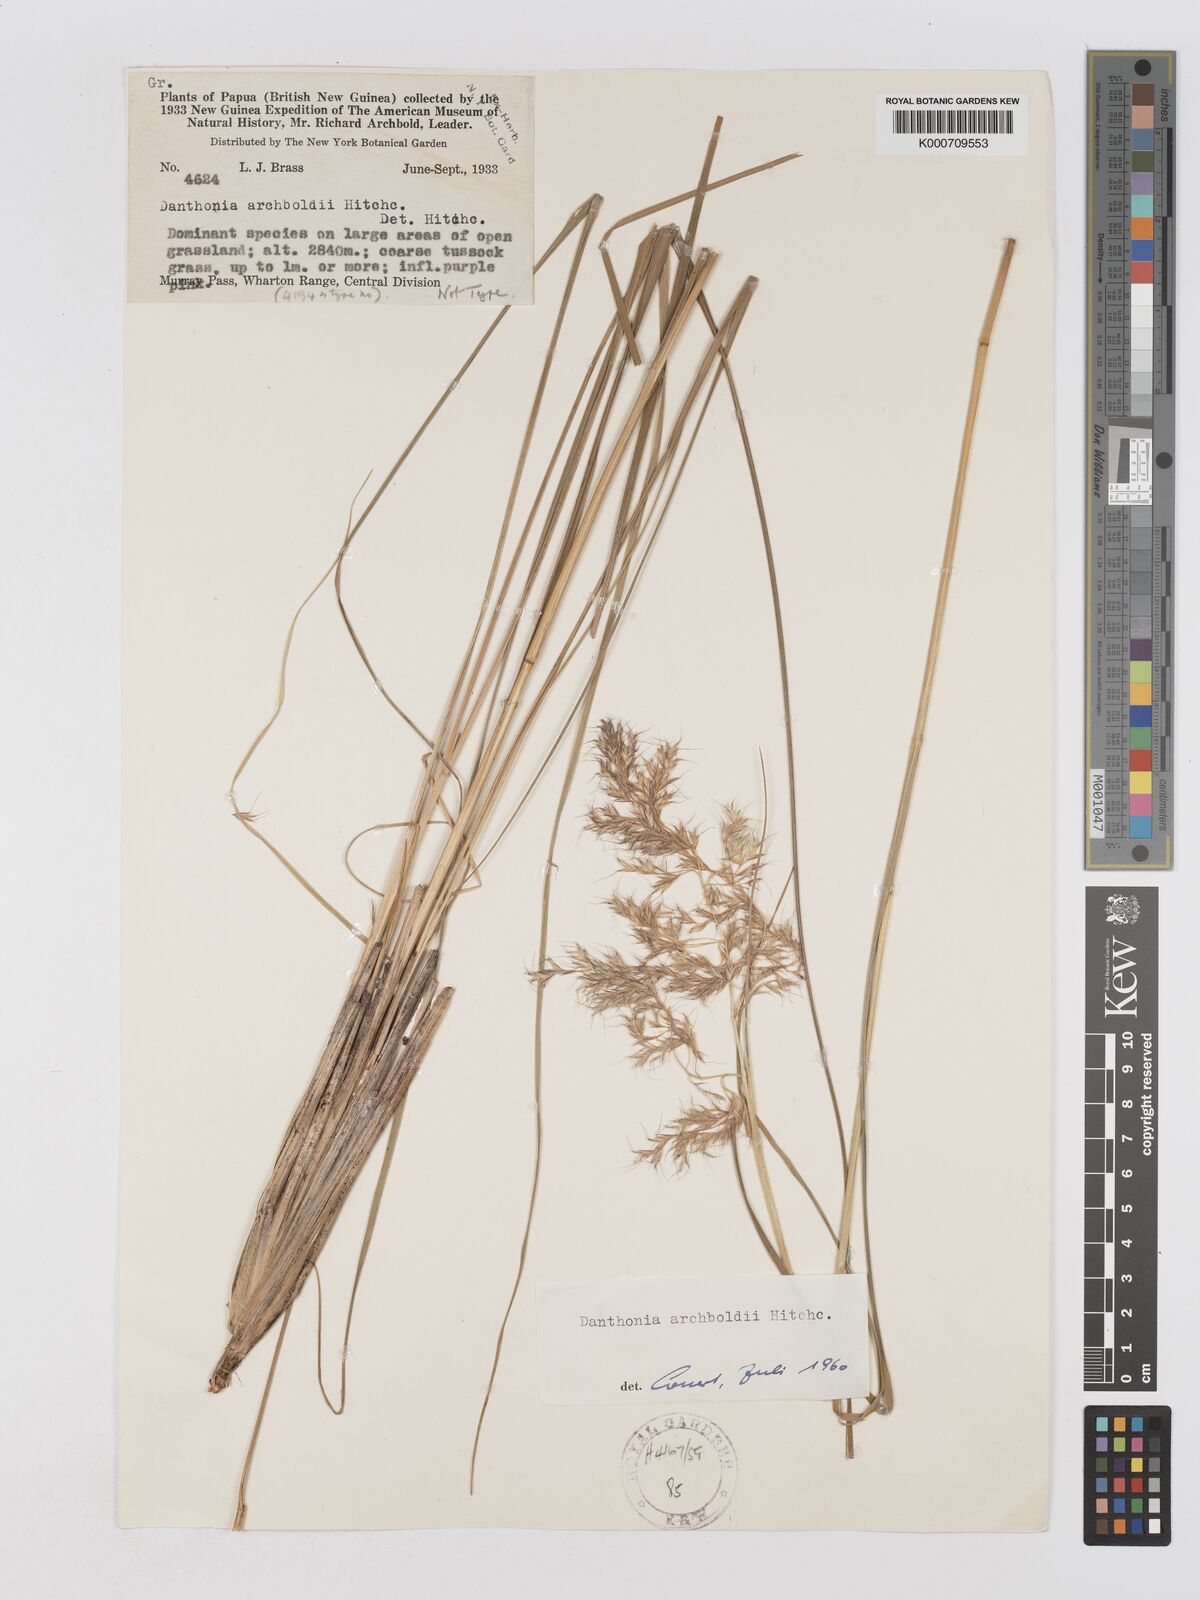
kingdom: Plantae
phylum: Tracheophyta
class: Liliopsida
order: Poales
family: Poaceae
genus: Chimaerochloa
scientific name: Chimaerochloa archboldii
